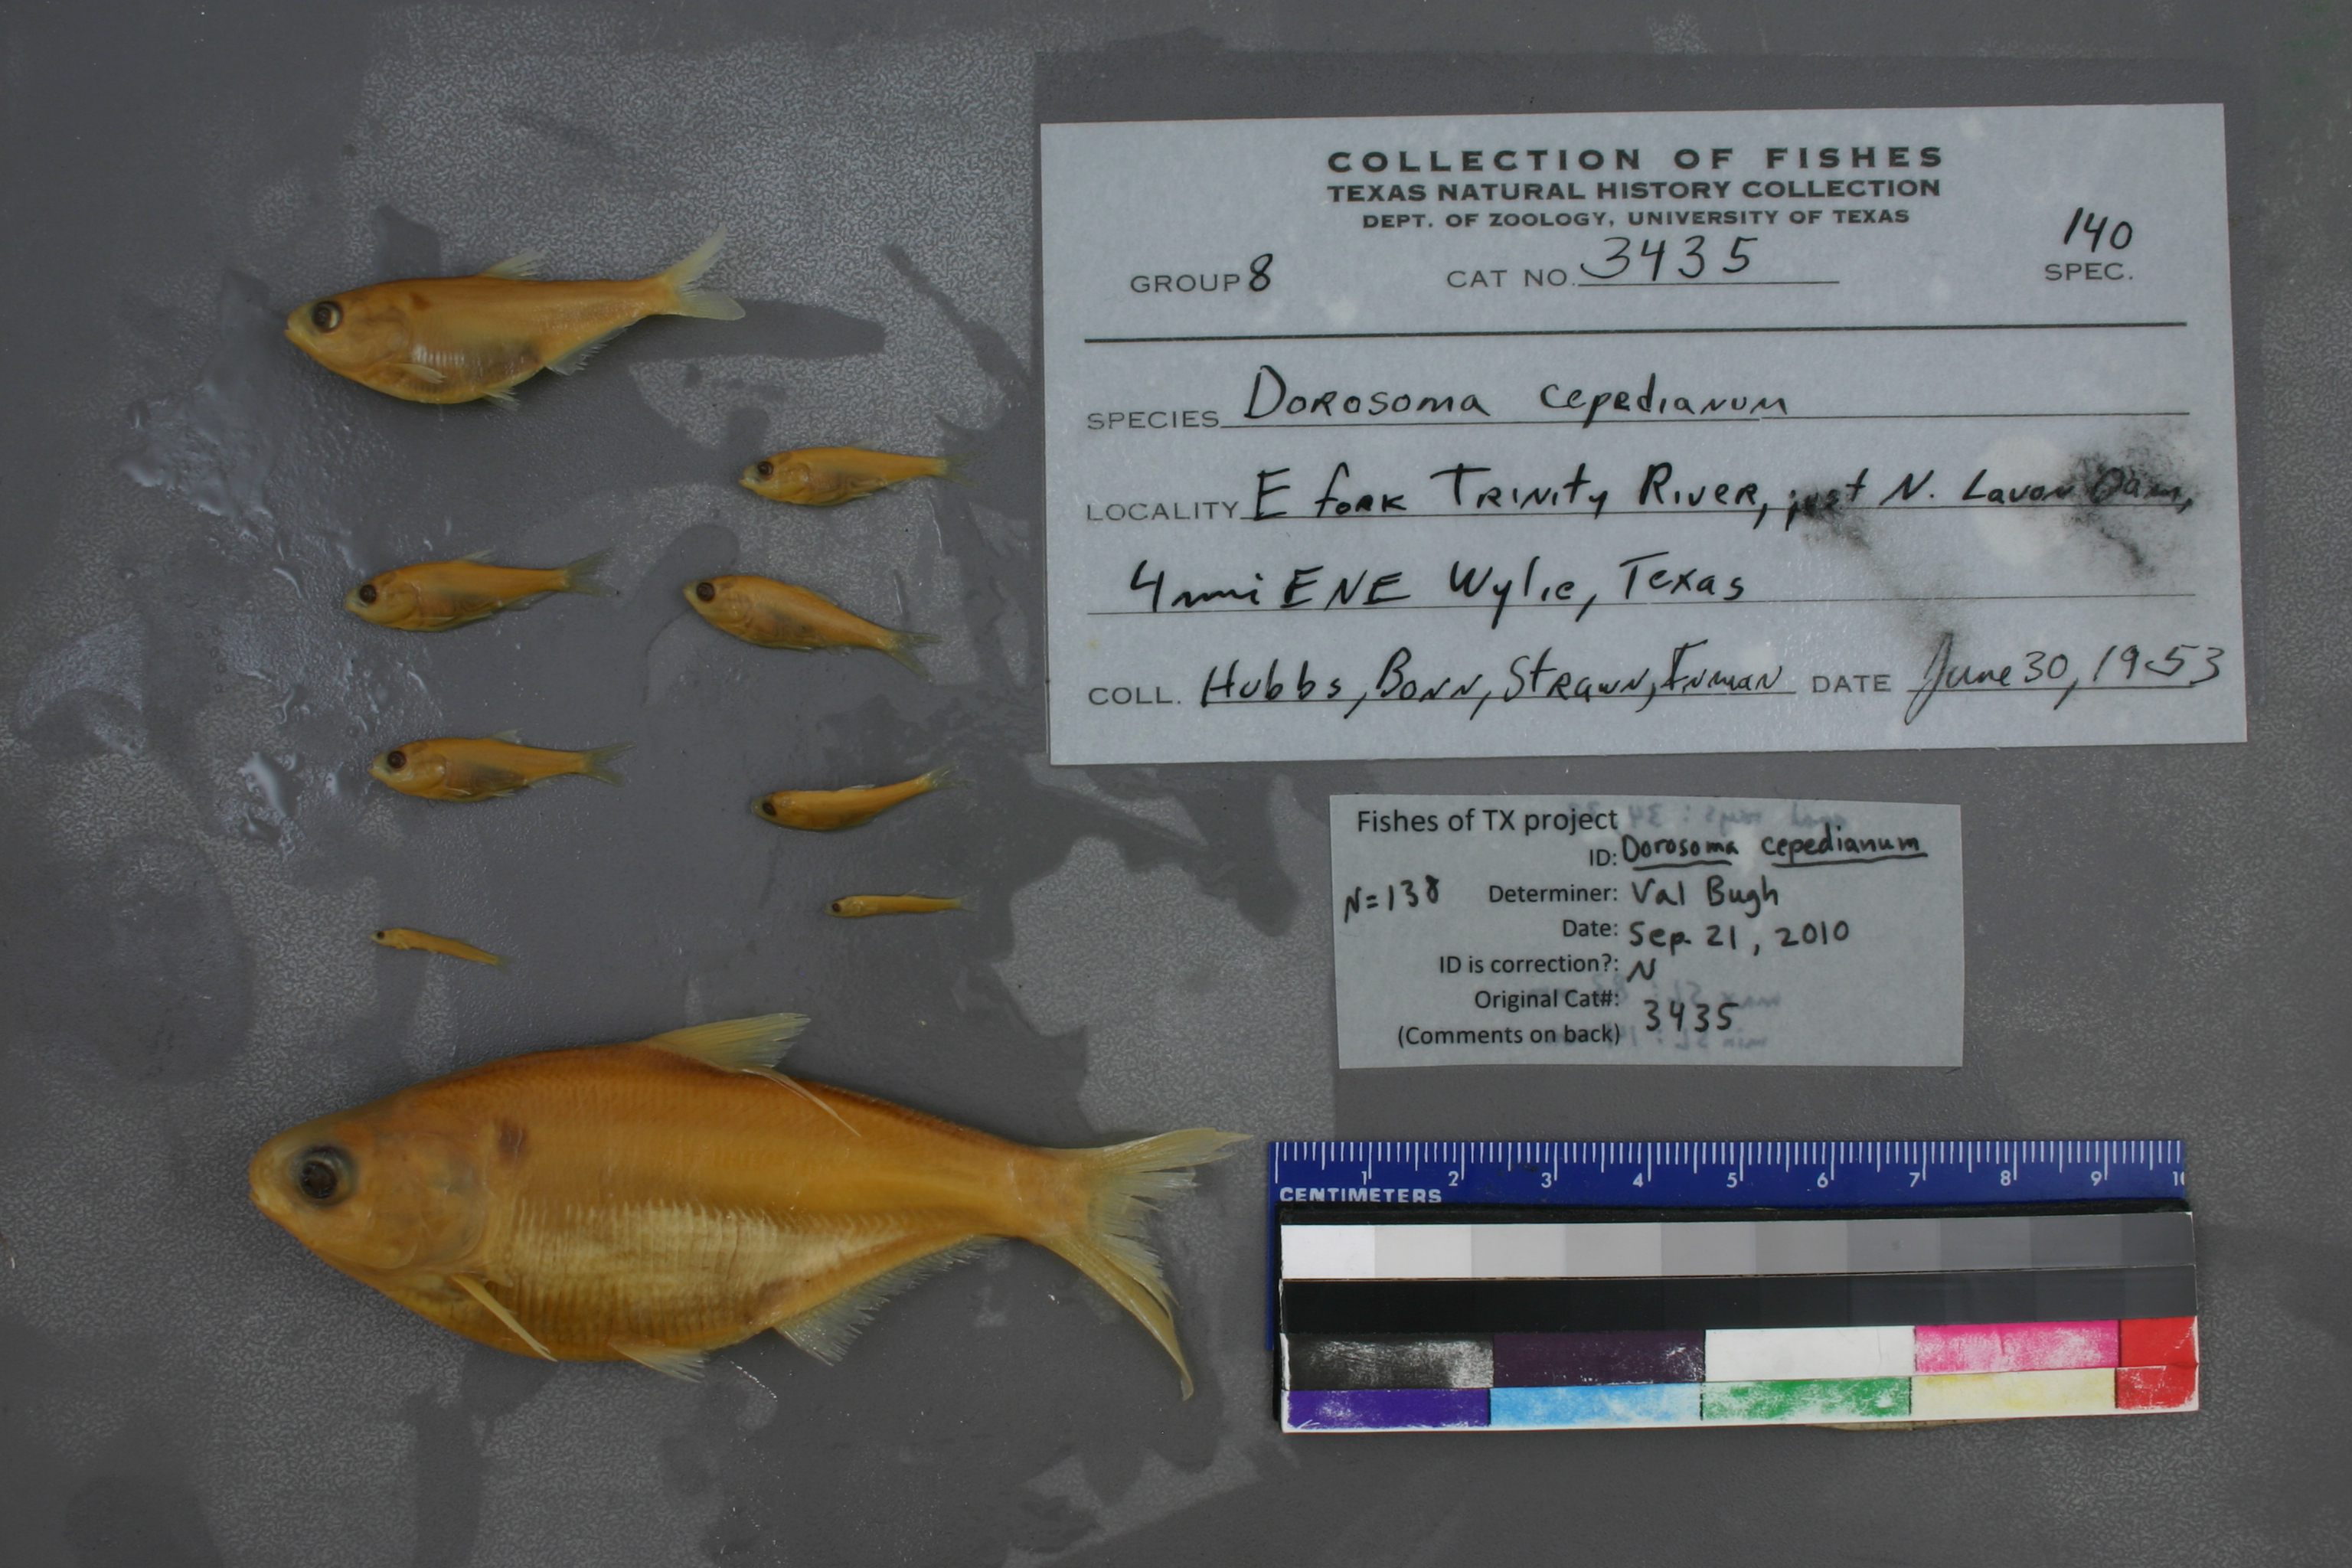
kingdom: Animalia
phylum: Chordata
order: Clupeiformes
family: Clupeidae
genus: Dorosoma
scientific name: Dorosoma cepedianum
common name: Gizzard shad
